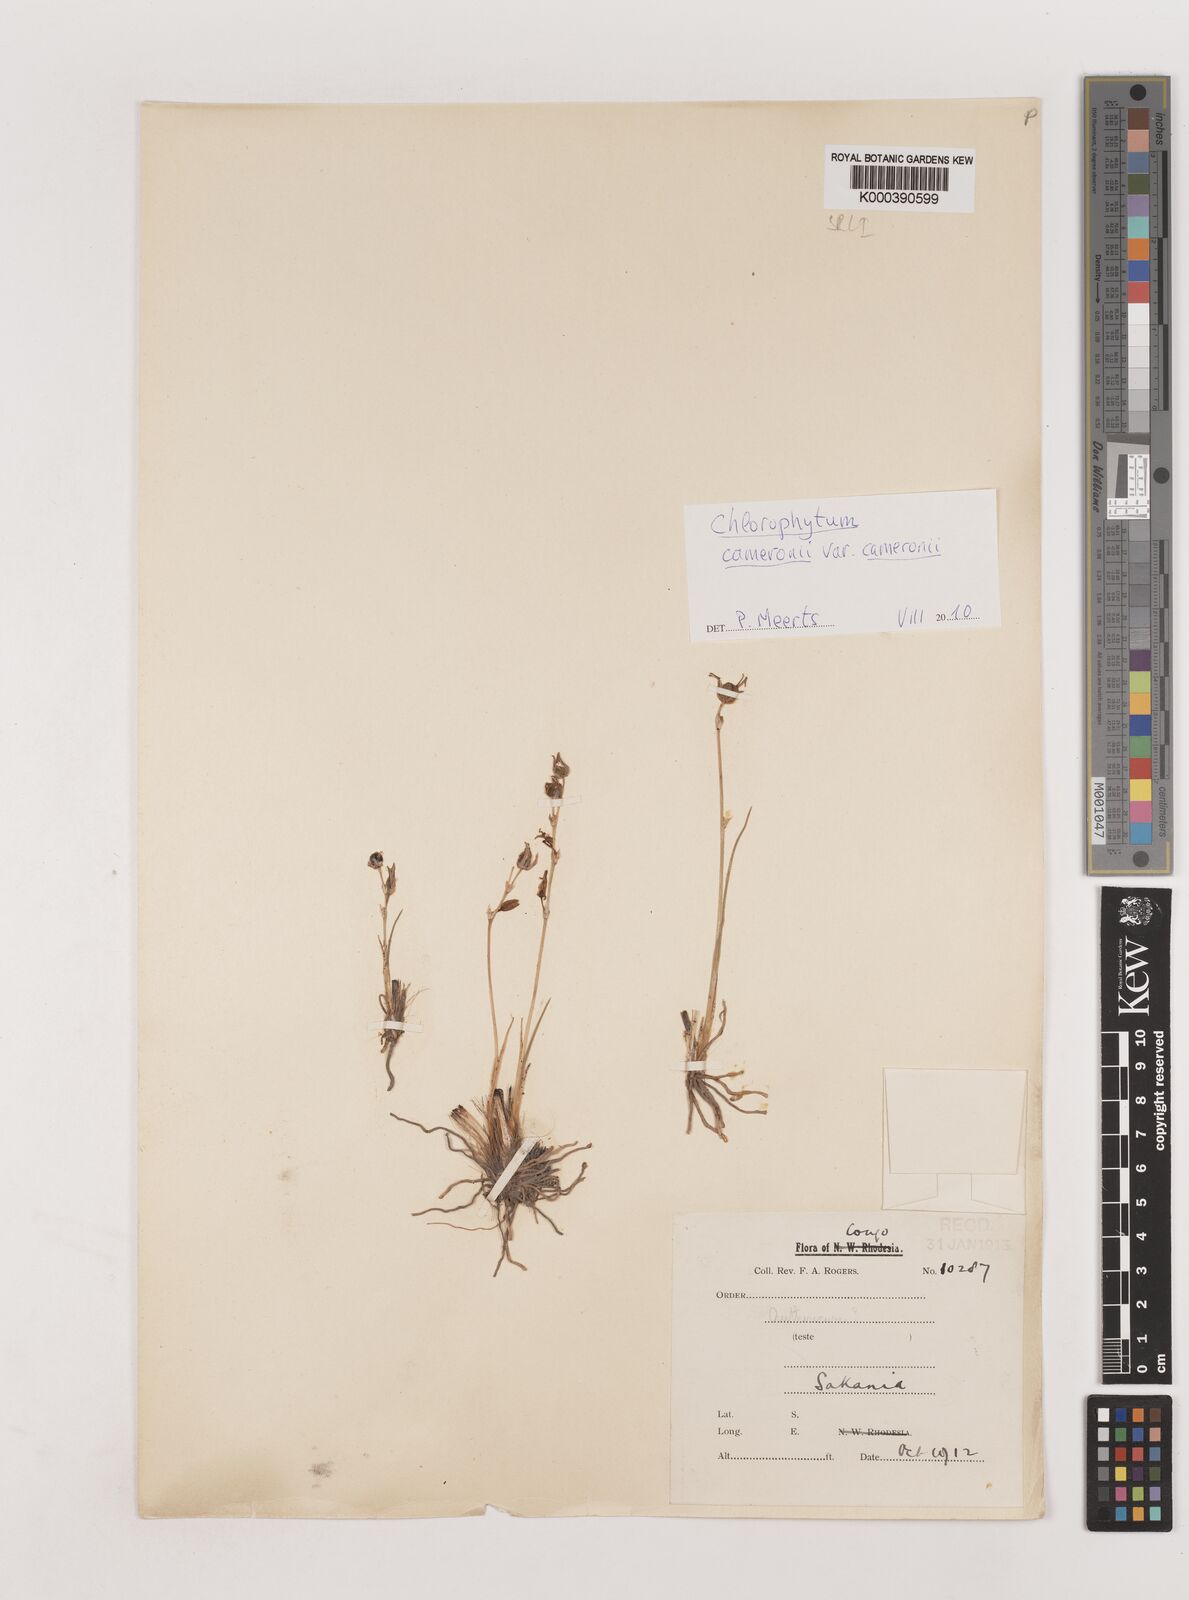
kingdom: Plantae
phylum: Tracheophyta
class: Liliopsida
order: Asparagales
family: Asparagaceae
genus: Chlorophytum
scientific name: Chlorophytum cameronii
